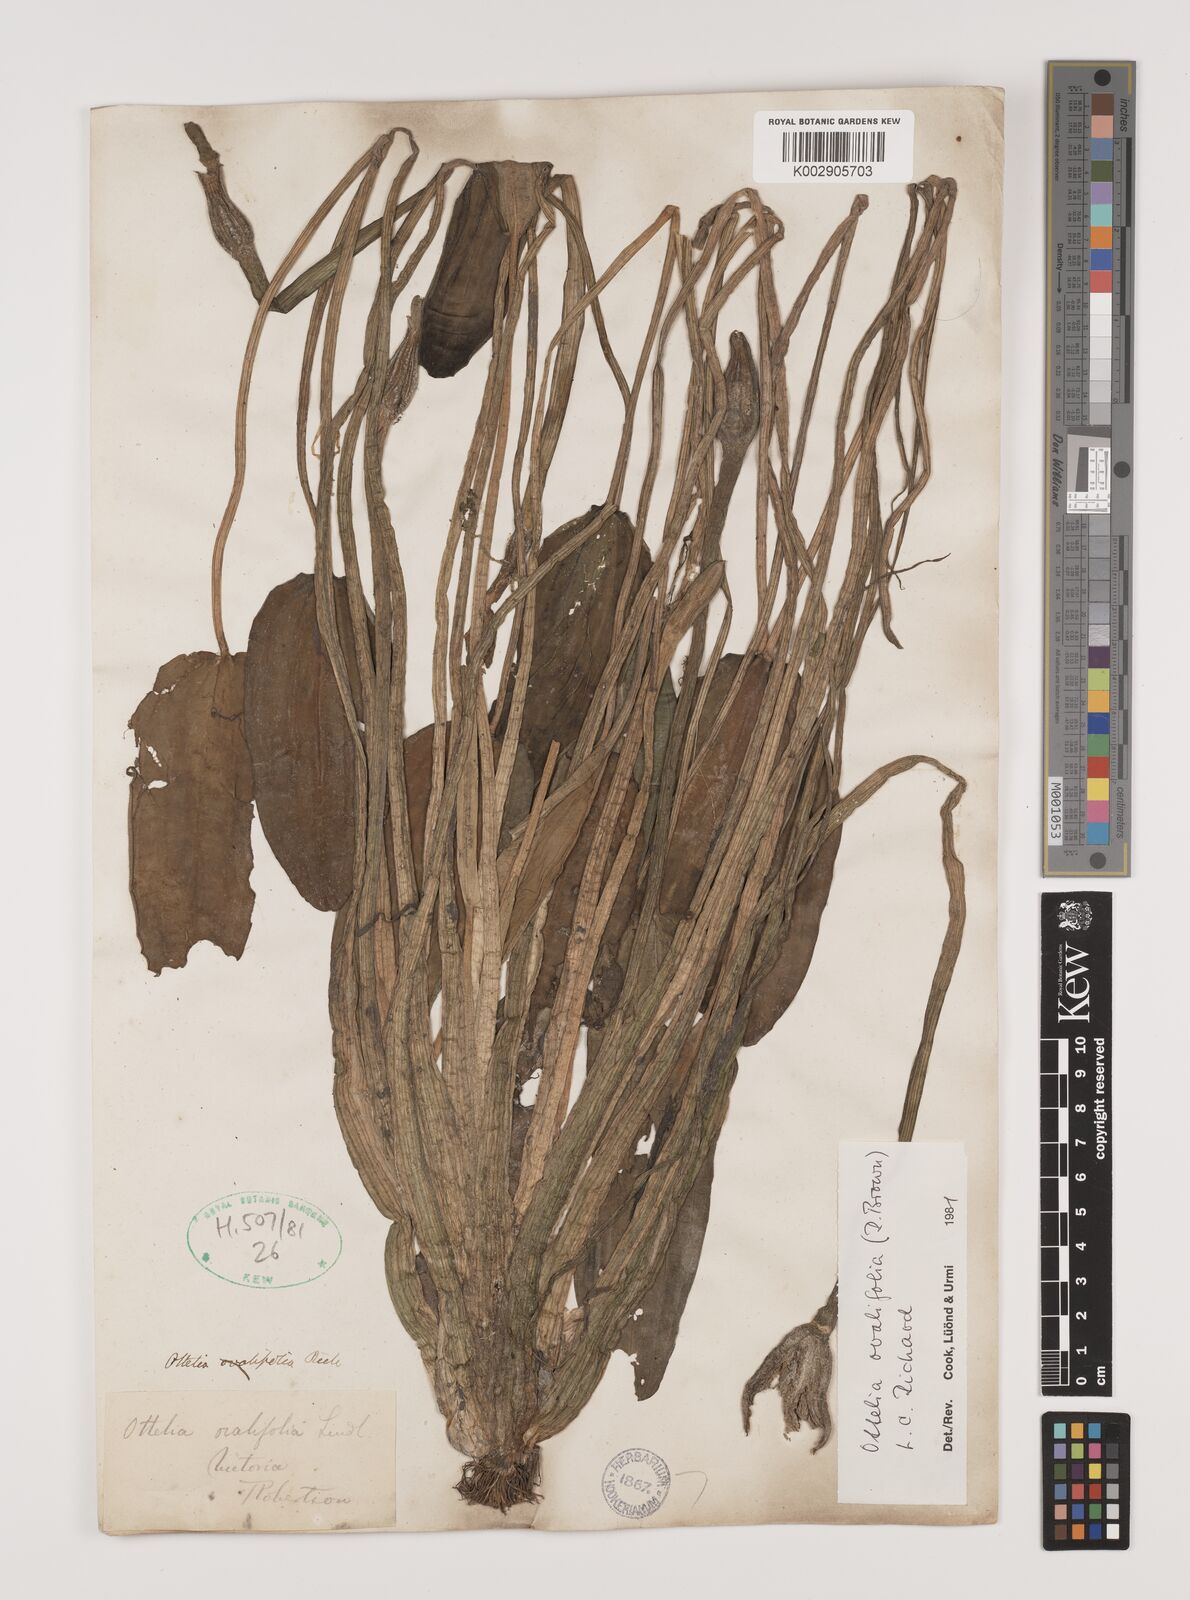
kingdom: Plantae
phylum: Tracheophyta
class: Liliopsida
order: Alismatales
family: Hydrocharitaceae
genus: Ottelia
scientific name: Ottelia ovalifolia
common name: Swamp-lily
